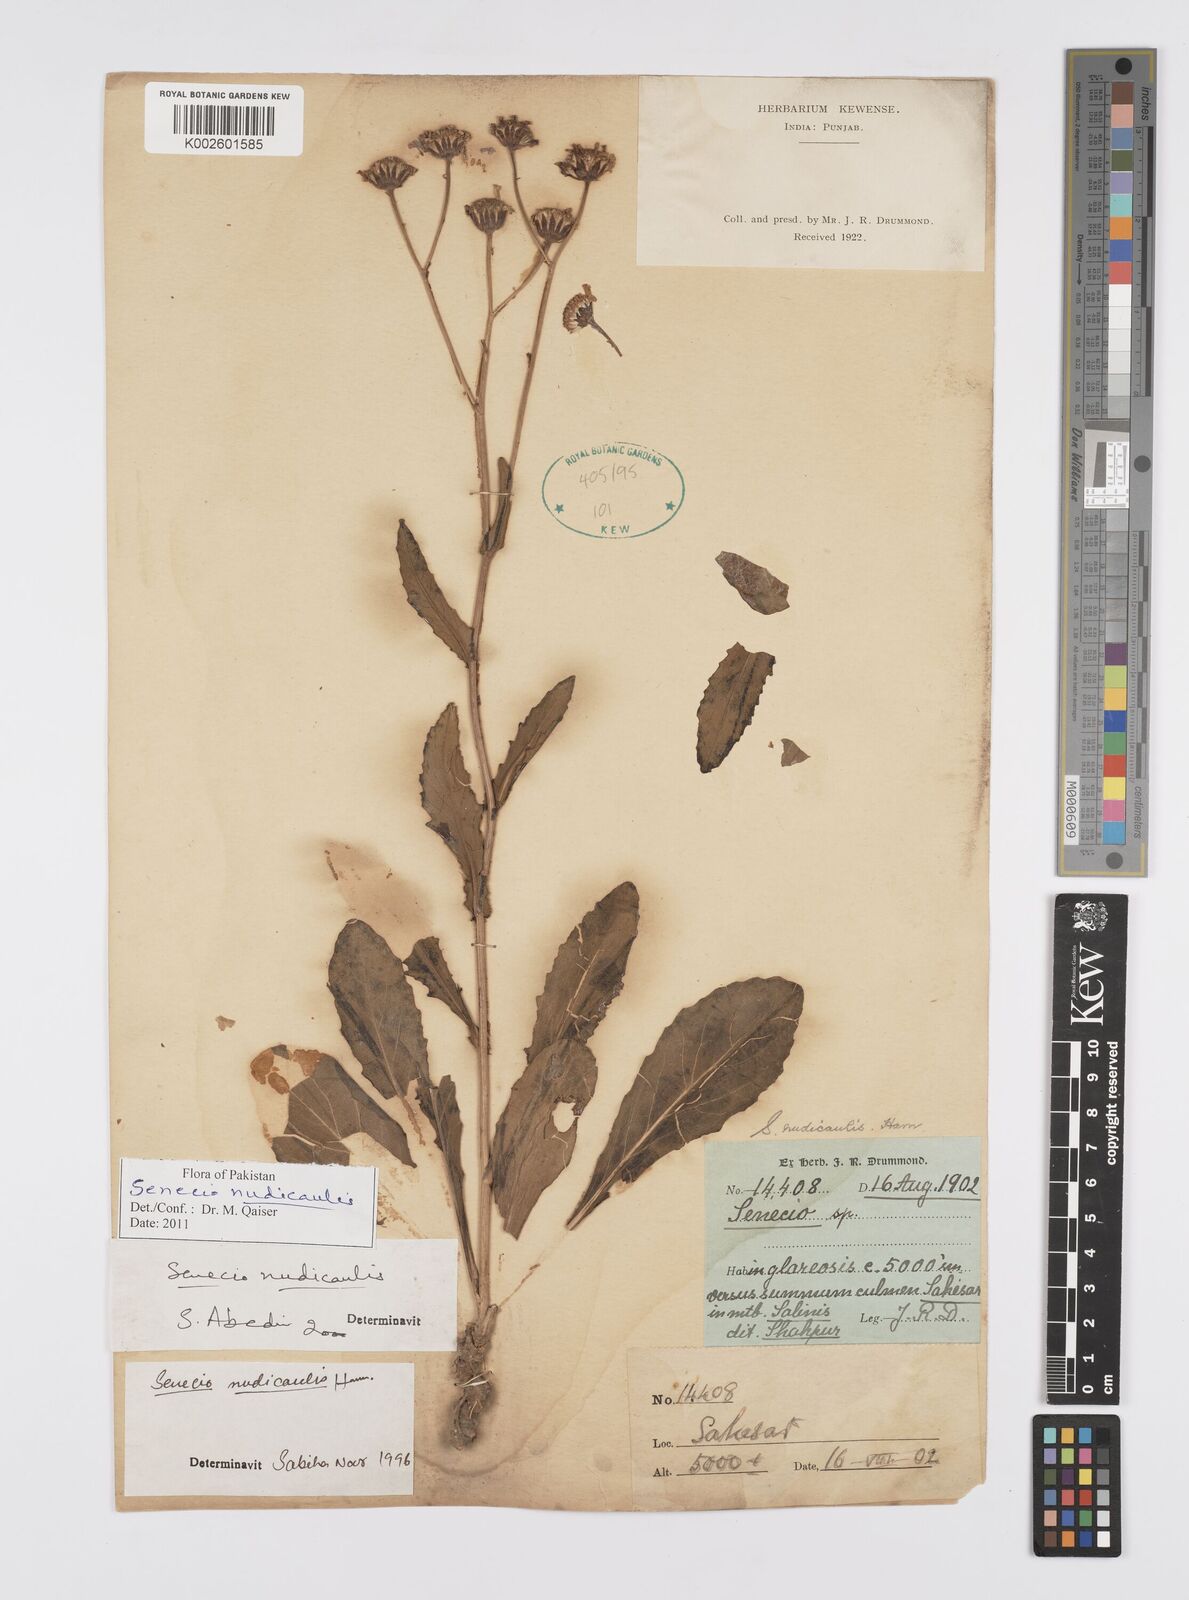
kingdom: Plantae
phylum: Tracheophyta
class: Magnoliopsida
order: Asterales
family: Asteraceae
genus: Jacobaea
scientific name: Jacobaea nudicaulis
